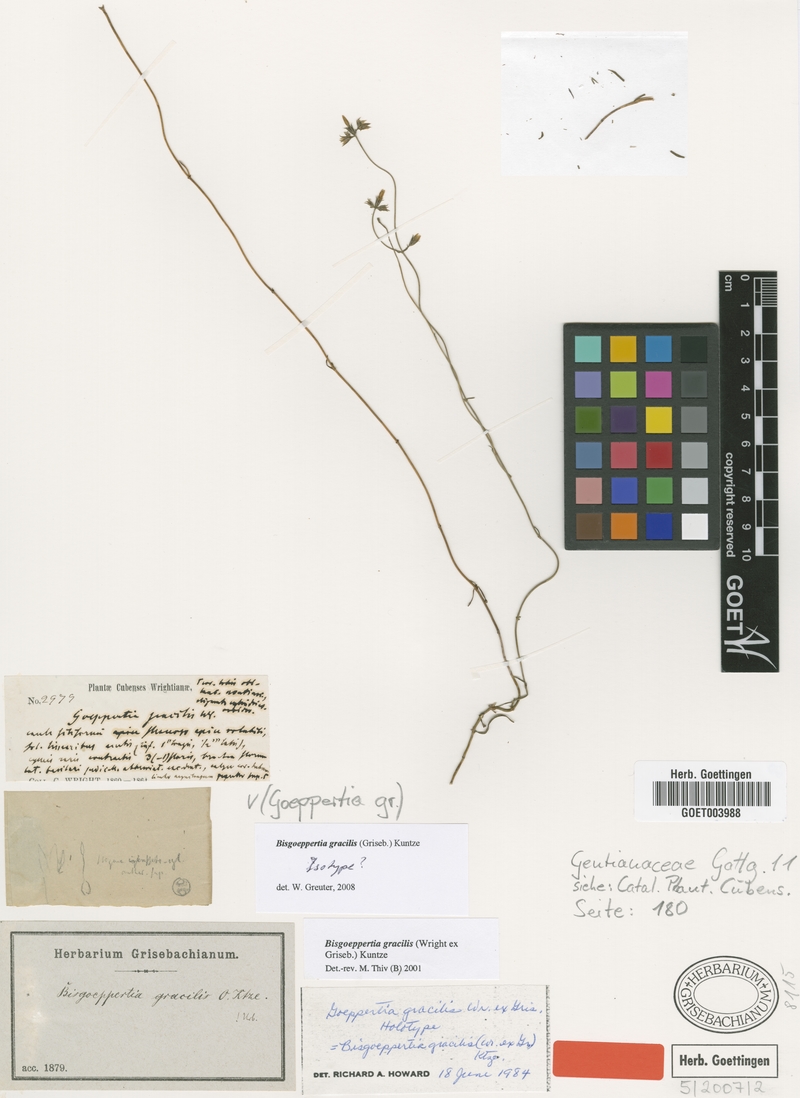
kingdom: Plantae
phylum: Tracheophyta
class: Magnoliopsida
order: Gentianales
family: Gentianaceae
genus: Bisgoeppertia
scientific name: Bisgoeppertia gracilis
